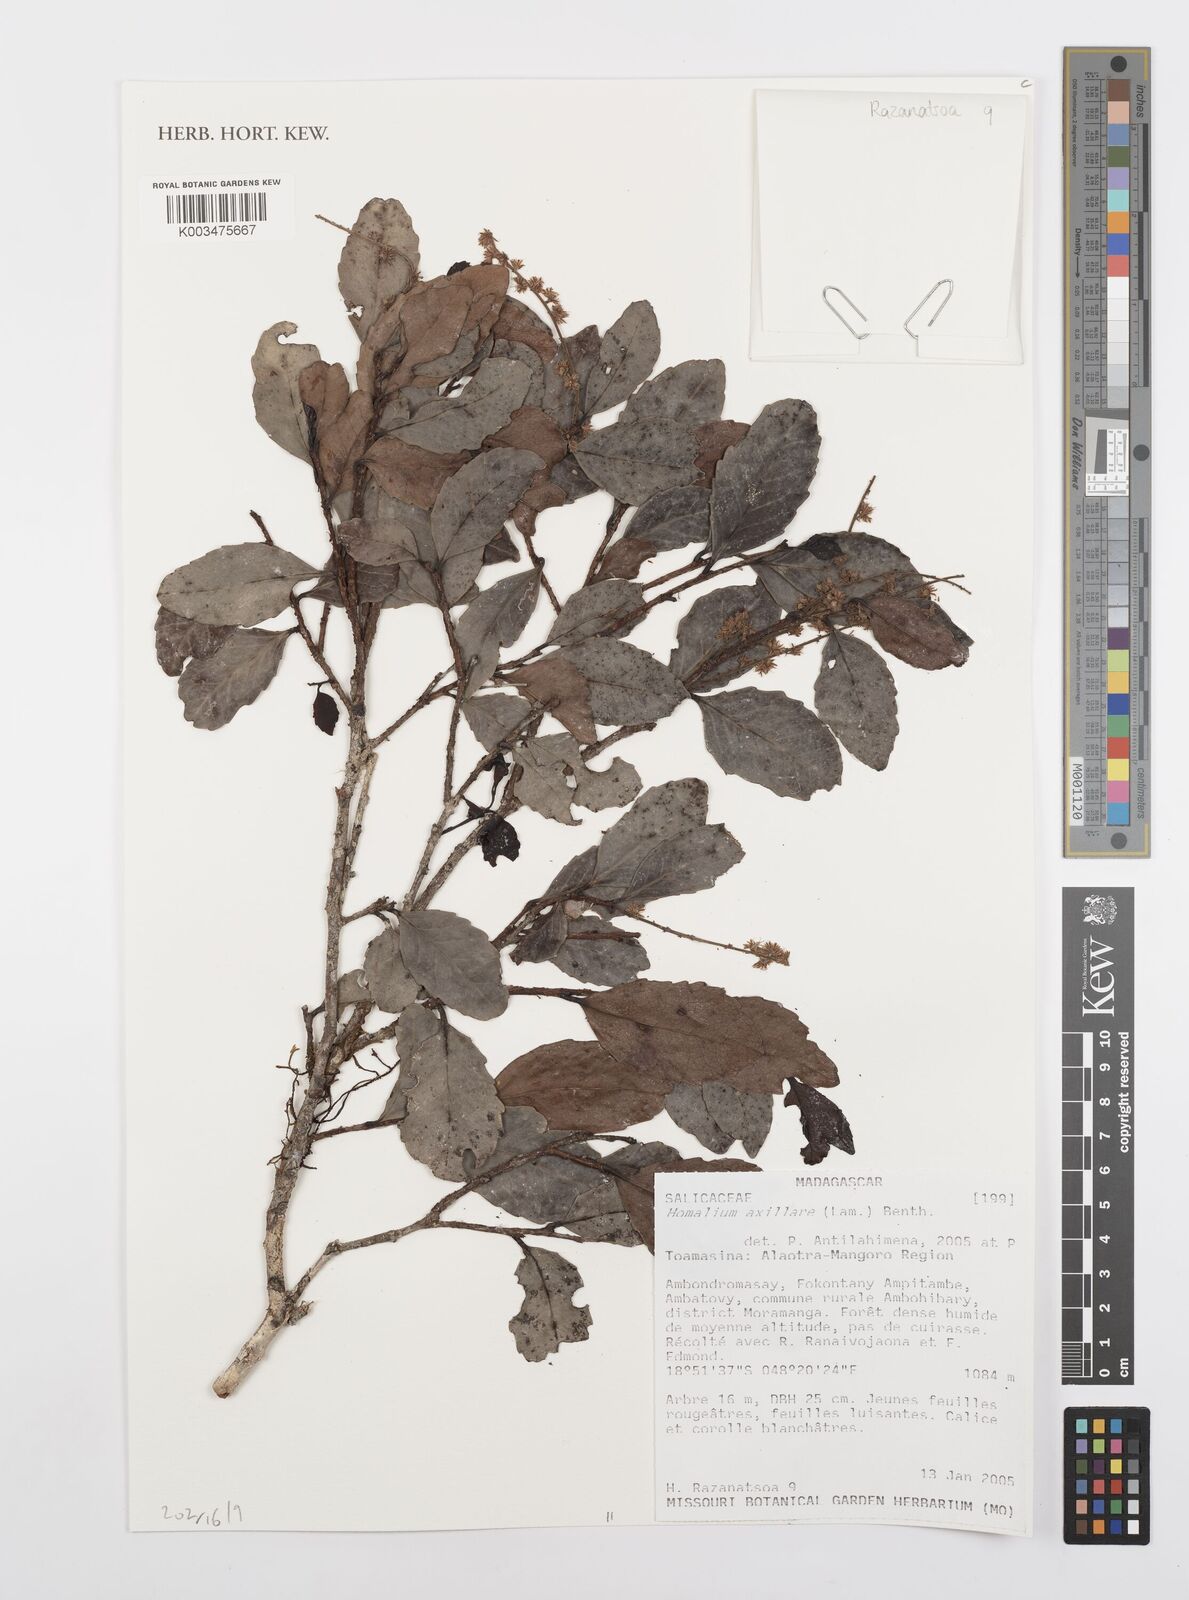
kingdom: Plantae
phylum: Tracheophyta
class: Magnoliopsida
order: Malpighiales
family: Salicaceae
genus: Homalium
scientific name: Homalium axillare
